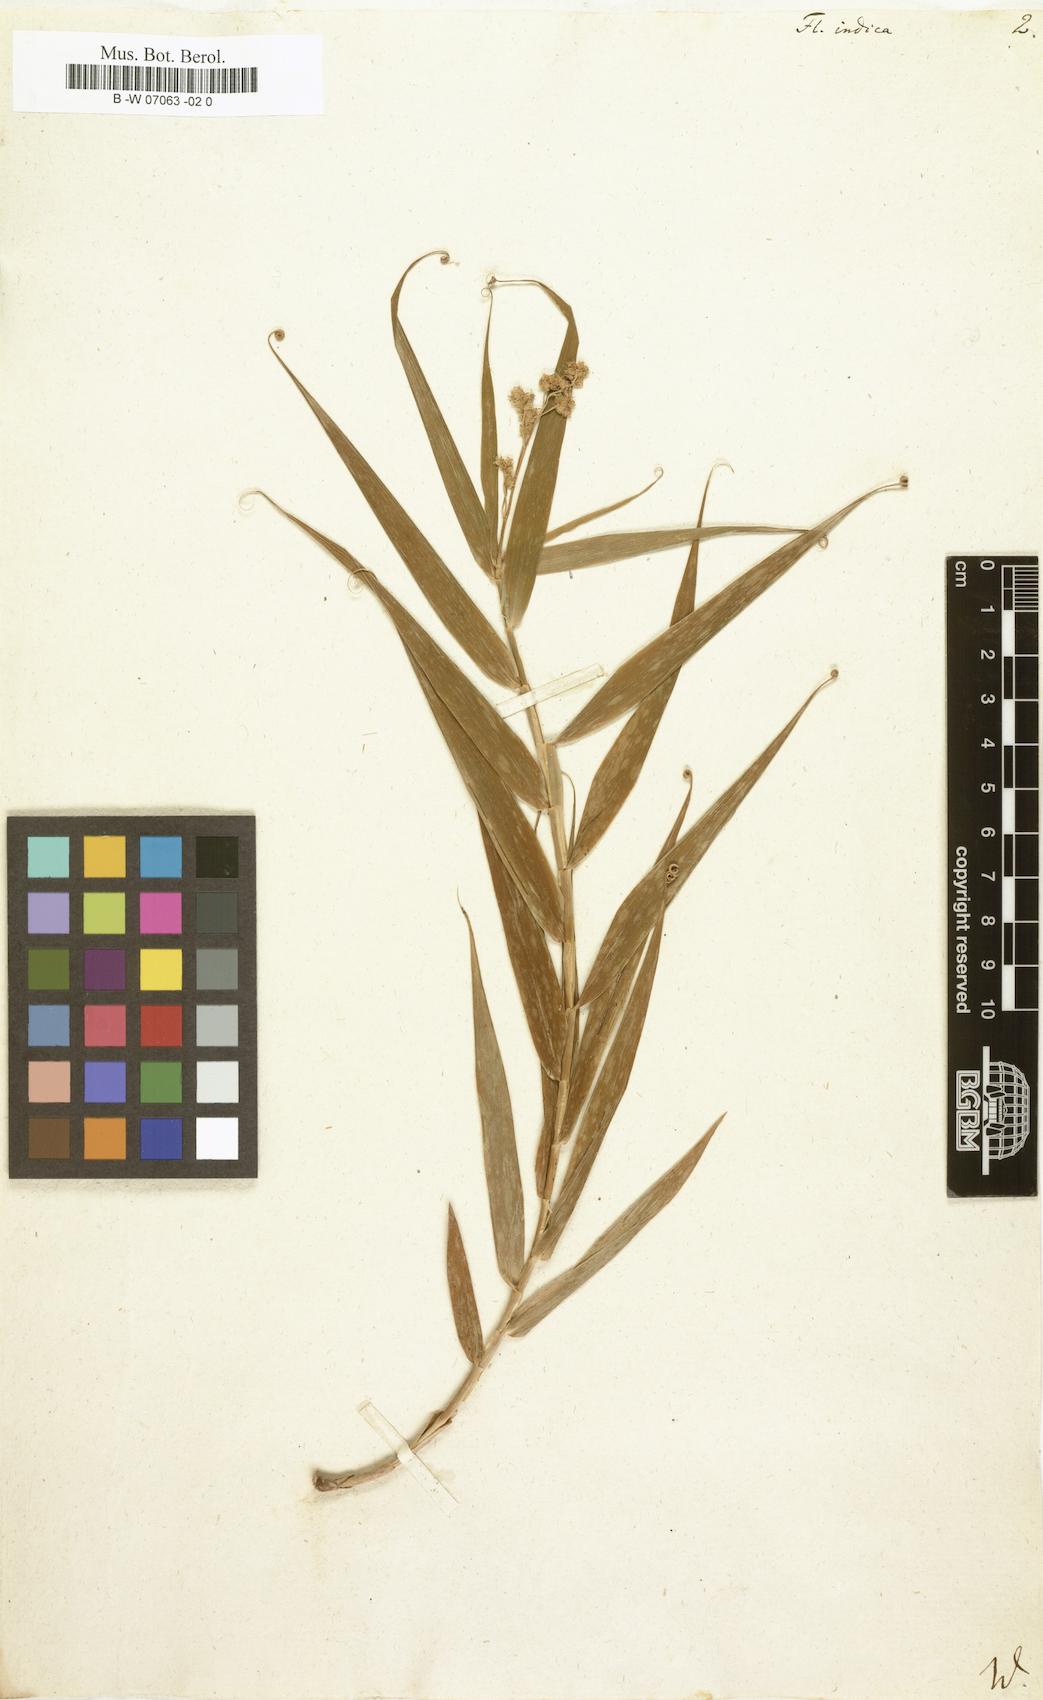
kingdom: Plantae
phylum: Tracheophyta
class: Liliopsida
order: Poales
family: Flagellariaceae
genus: Flagellaria
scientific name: Flagellaria indica
